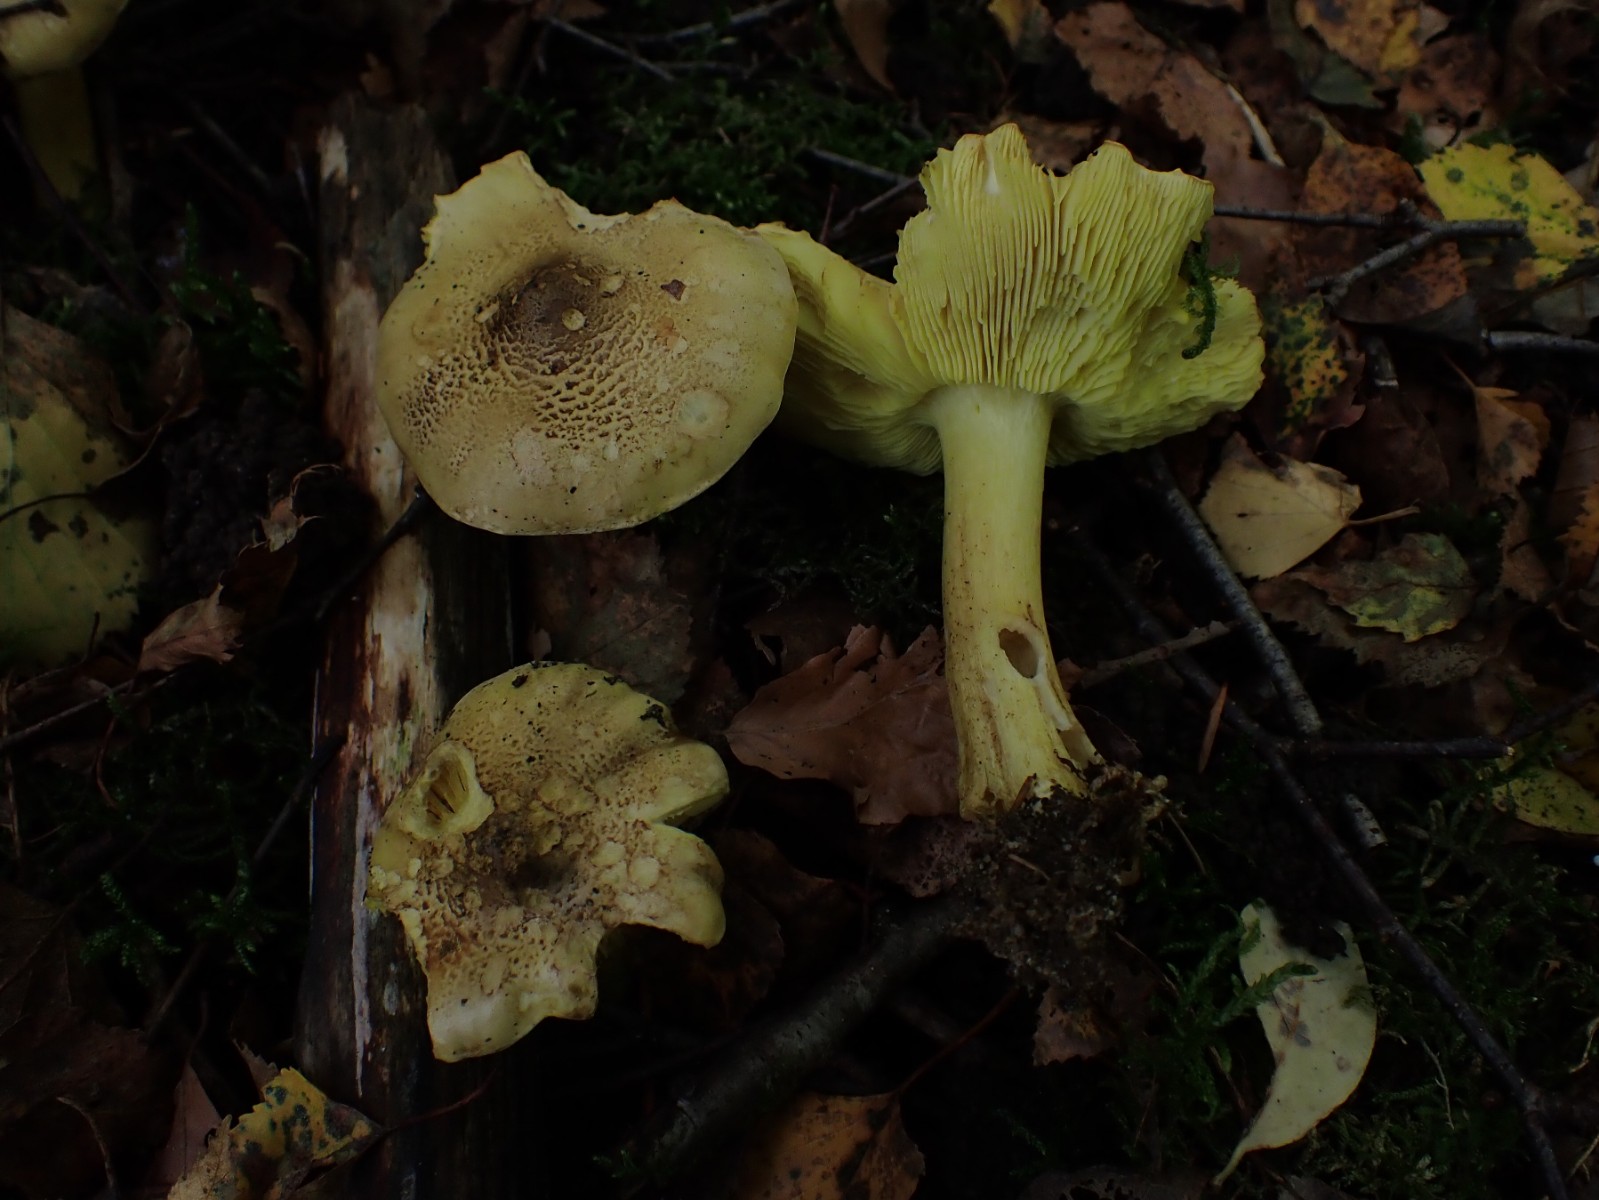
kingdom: Fungi
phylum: Basidiomycota
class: Agaricomycetes
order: Agaricales
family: Tricholomataceae
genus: Tricholoma
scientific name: Tricholoma frondosae
